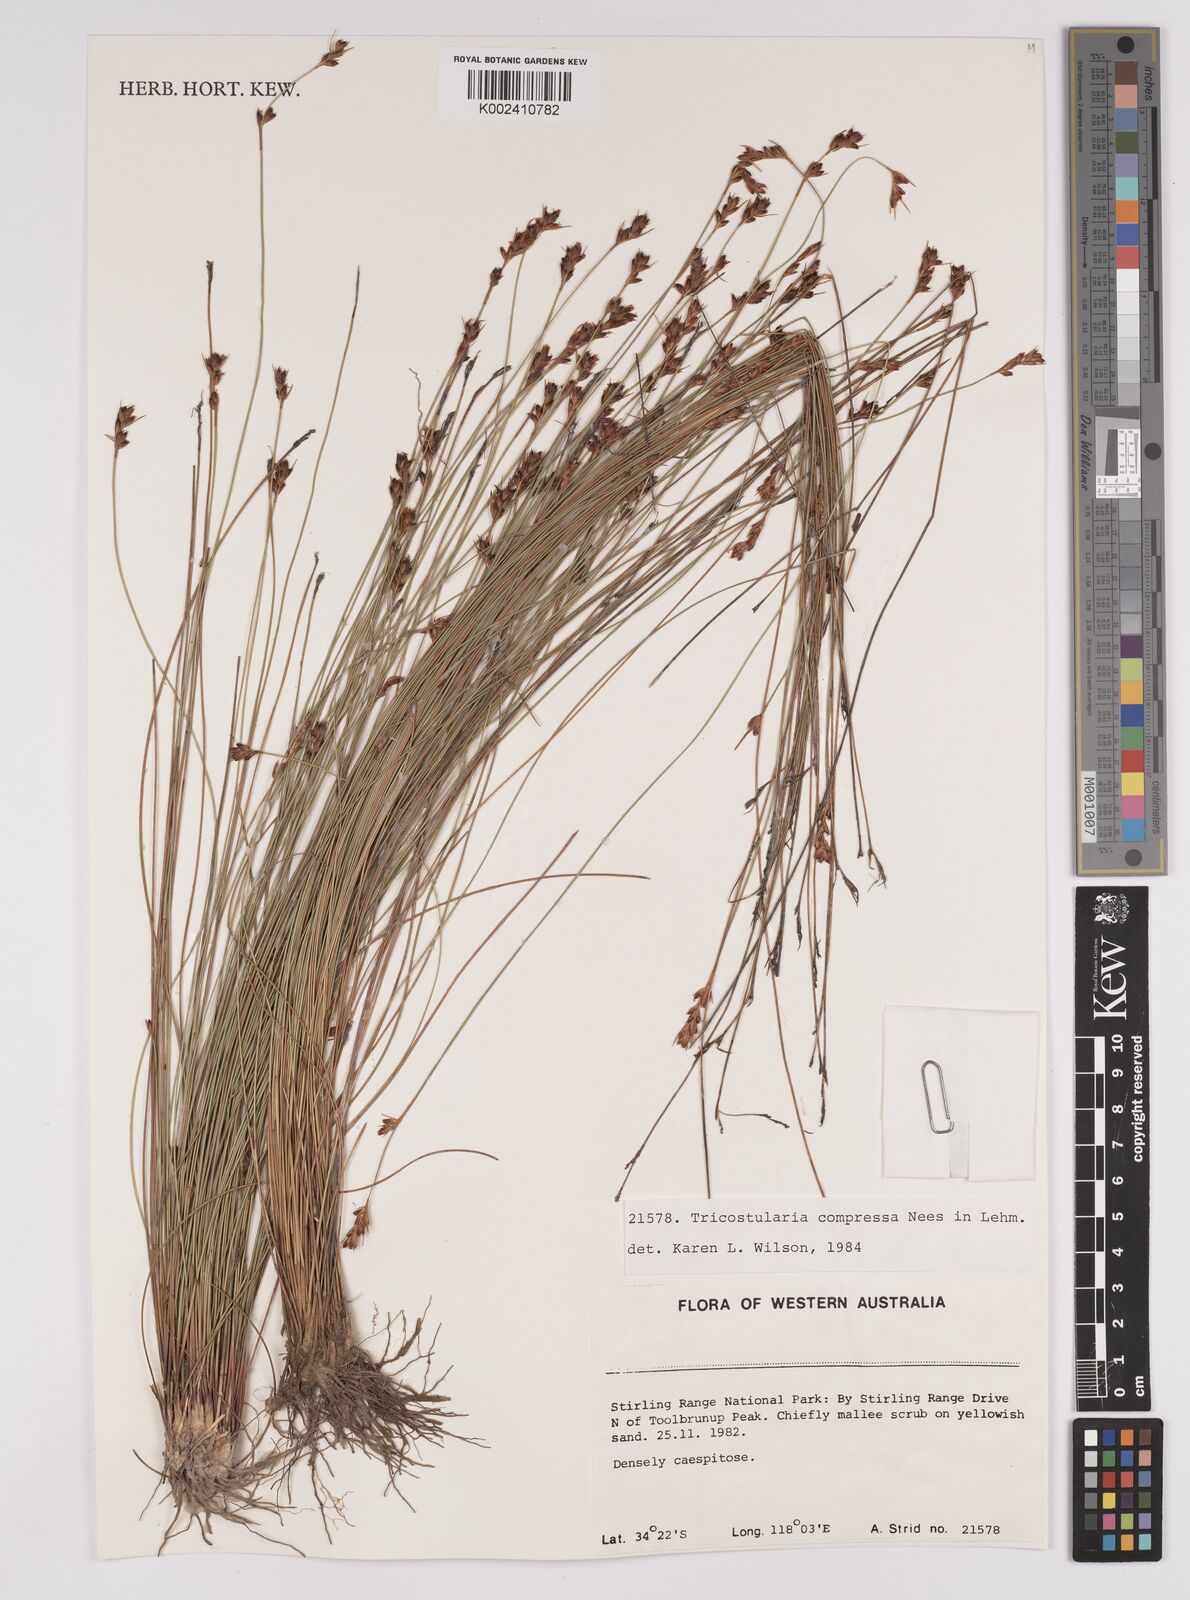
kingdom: Plantae
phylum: Tracheophyta
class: Liliopsida
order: Poales
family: Cyperaceae
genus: Tricostularia
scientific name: Tricostularia compressa
